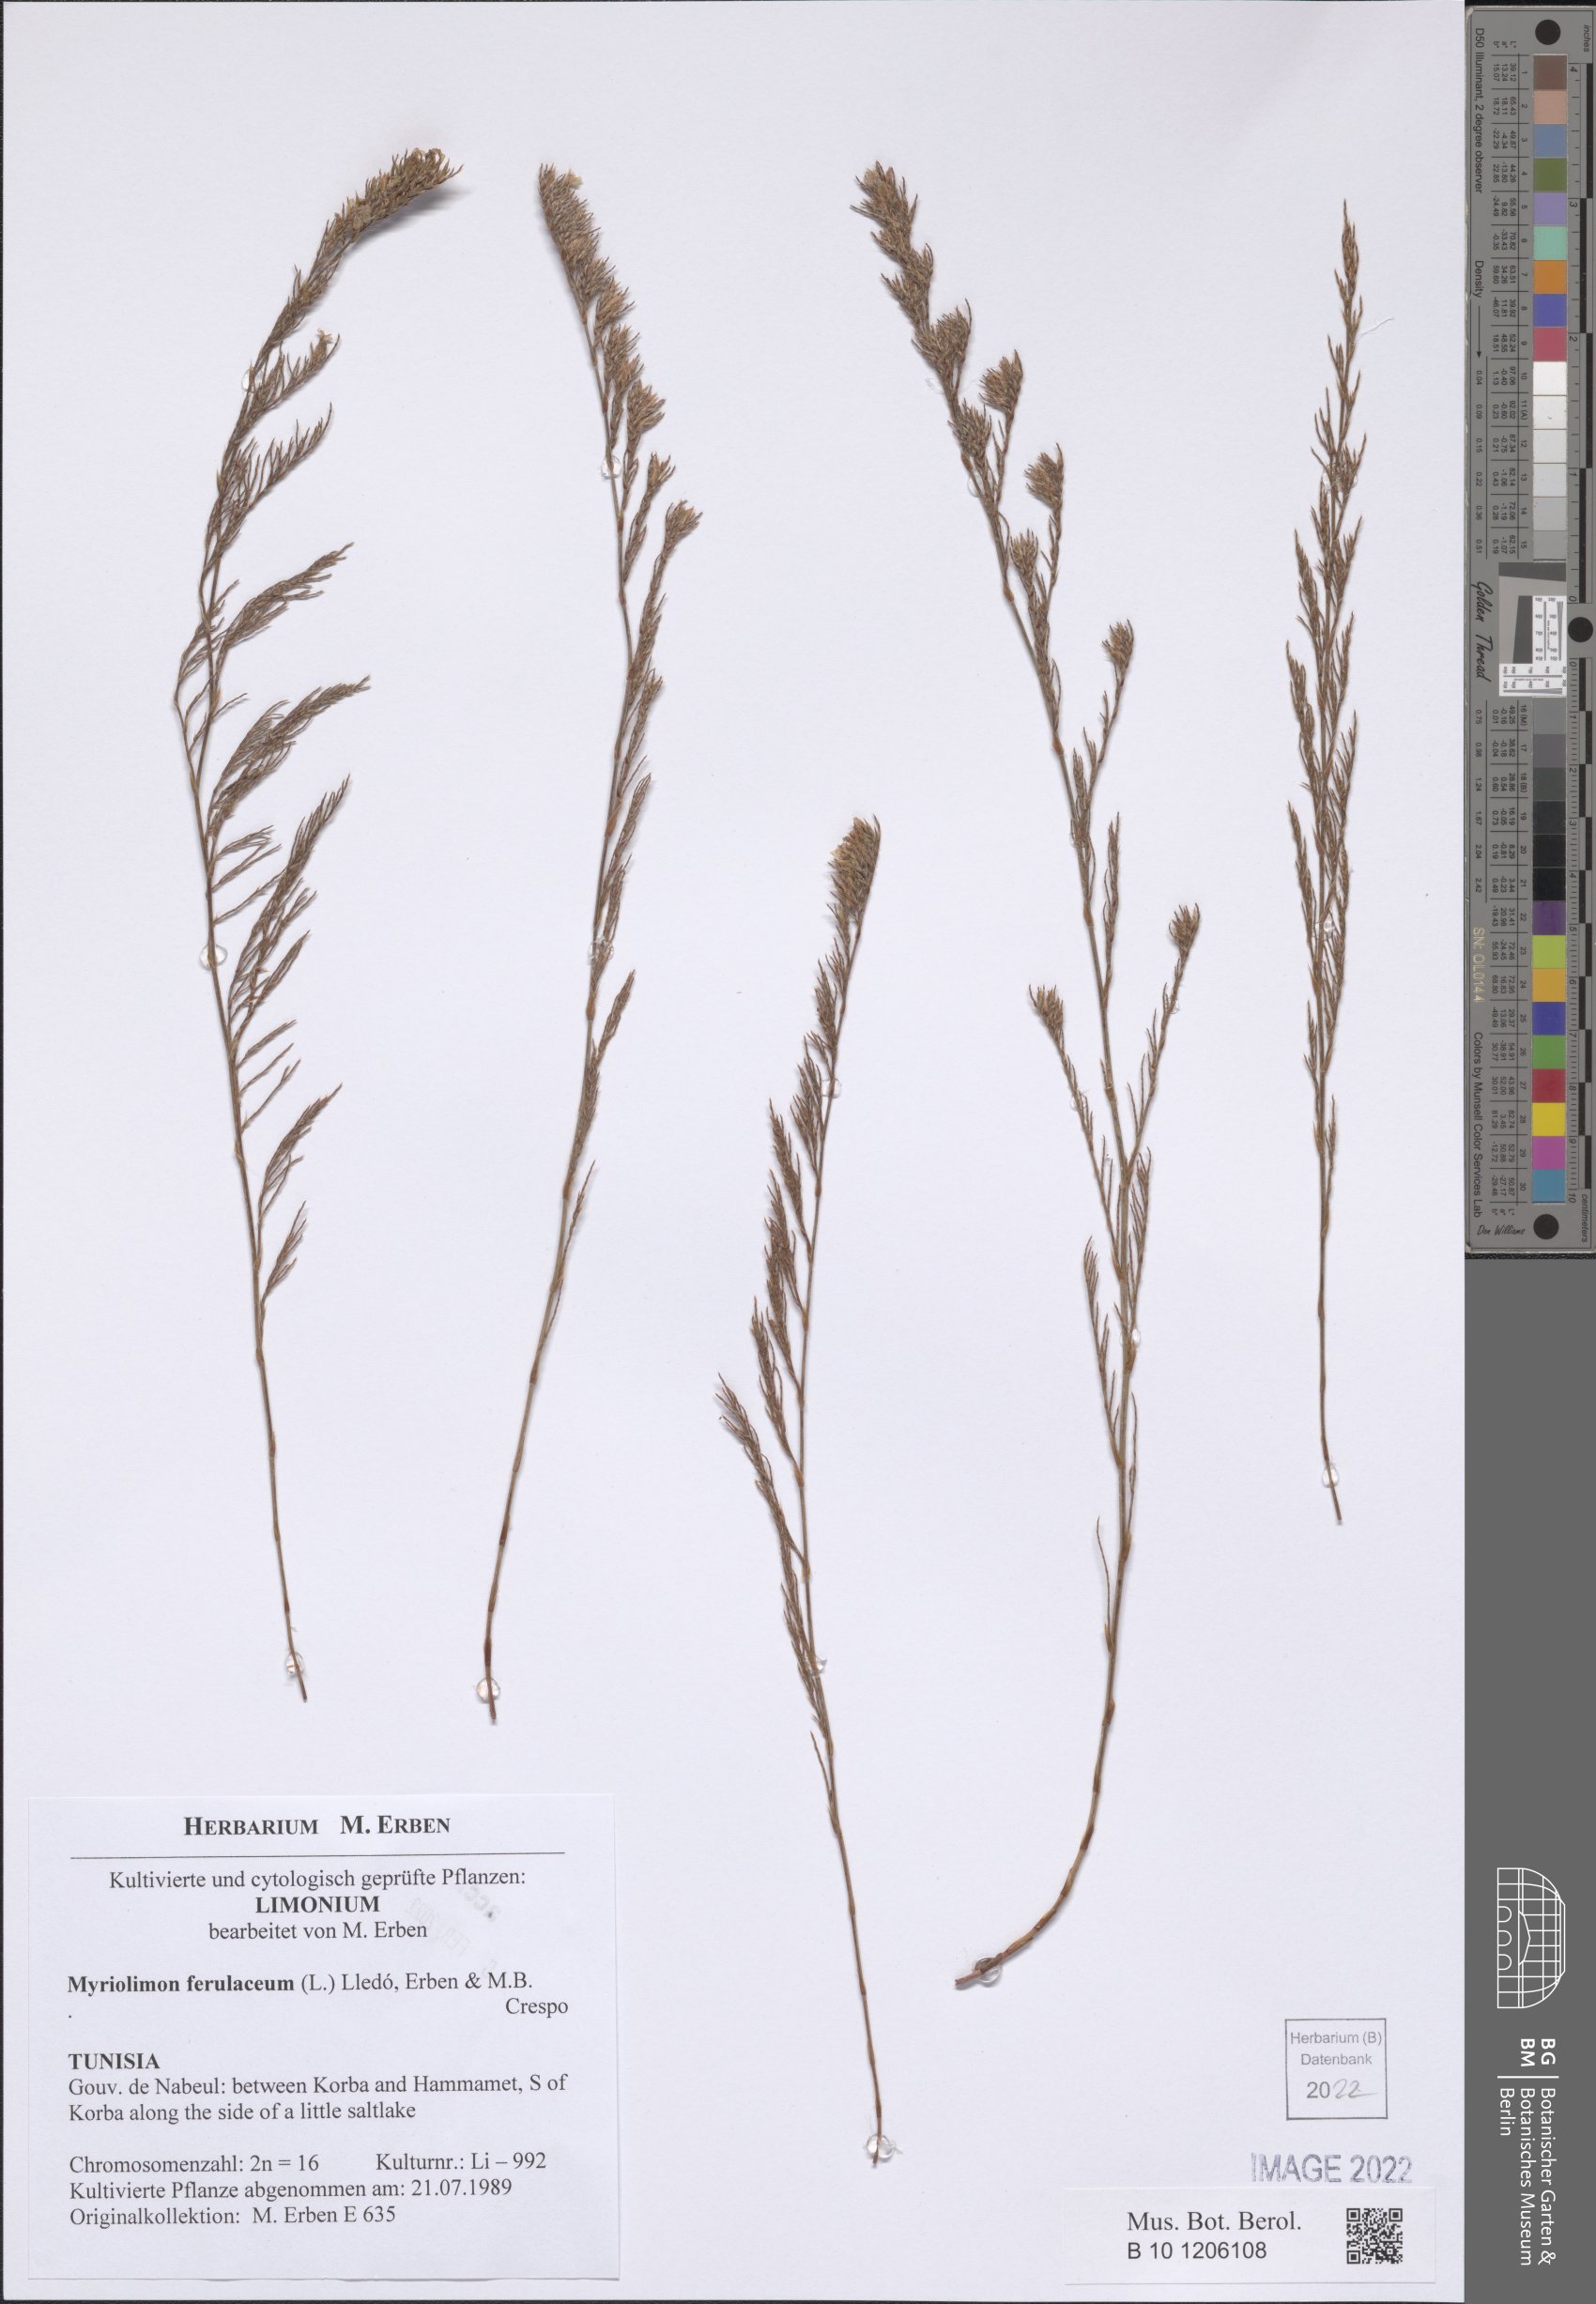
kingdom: Plantae
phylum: Tracheophyta
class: Magnoliopsida
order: Caryophyllales
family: Plumbaginaceae
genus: Myriolimon
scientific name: Myriolimon ferulaceum
